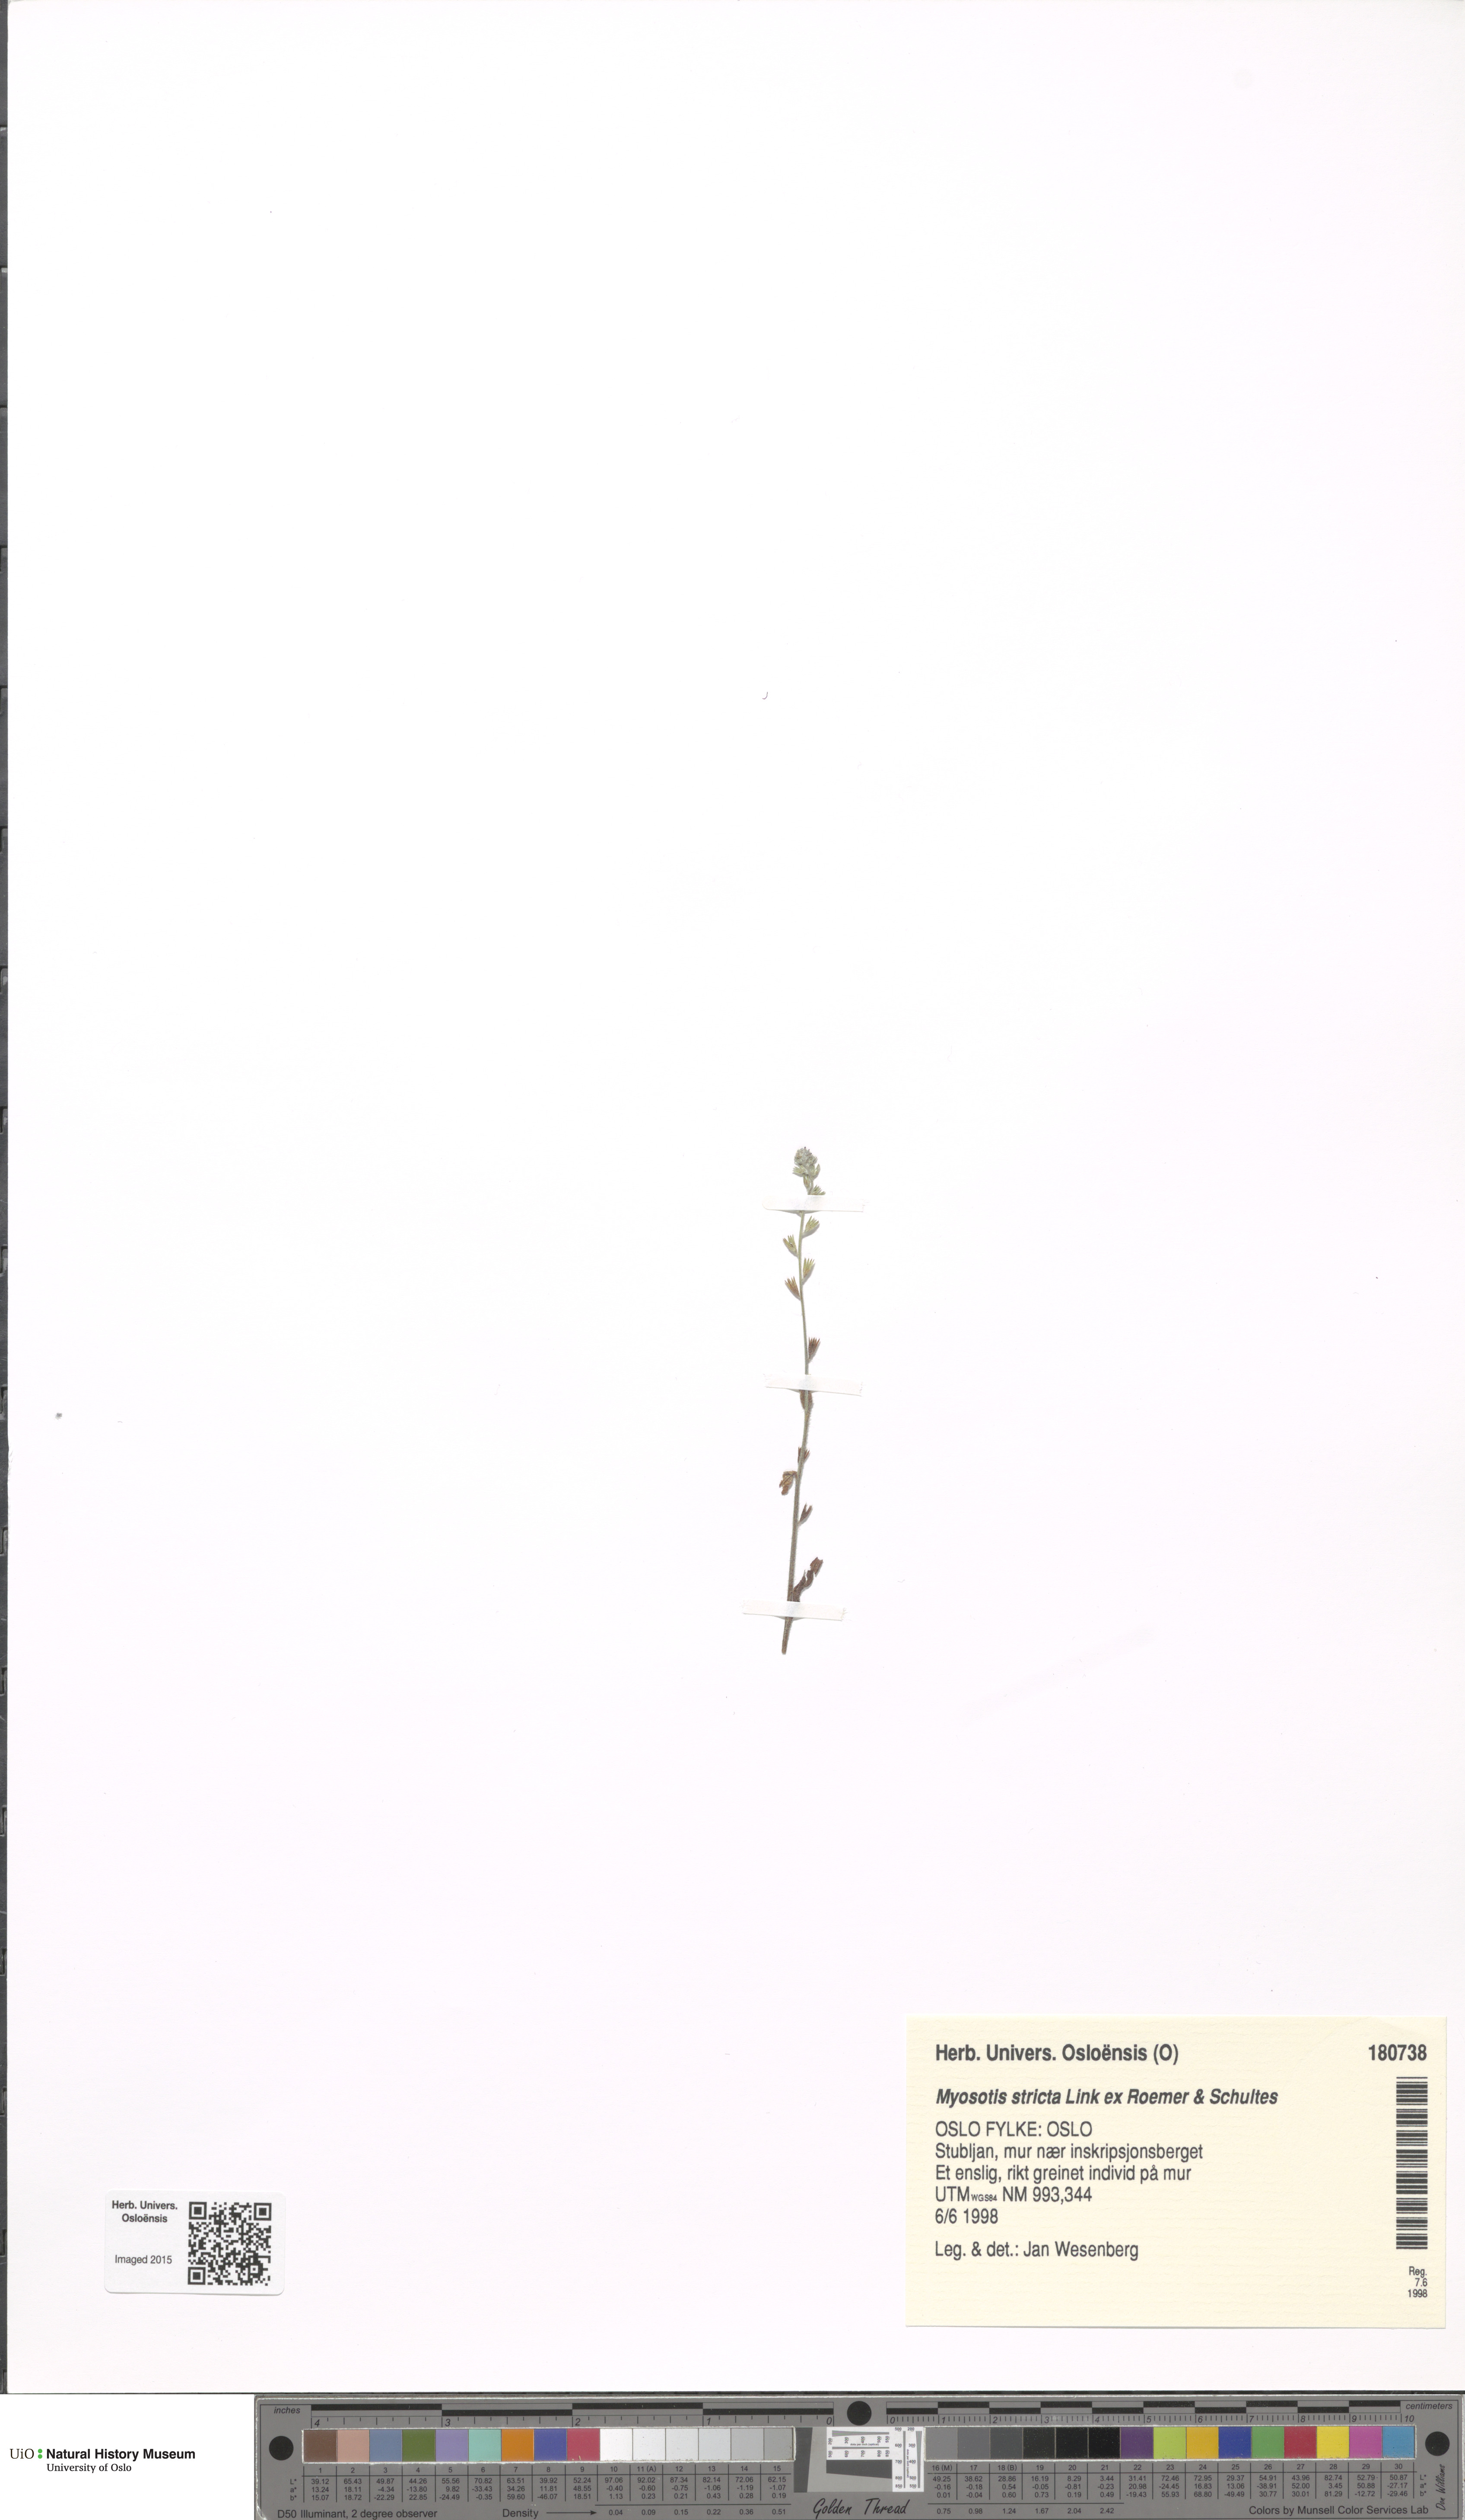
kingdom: Plantae
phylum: Tracheophyta
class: Magnoliopsida
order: Boraginales
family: Boraginaceae
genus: Myosotis
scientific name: Myosotis stricta
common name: Strict forget-me-not
